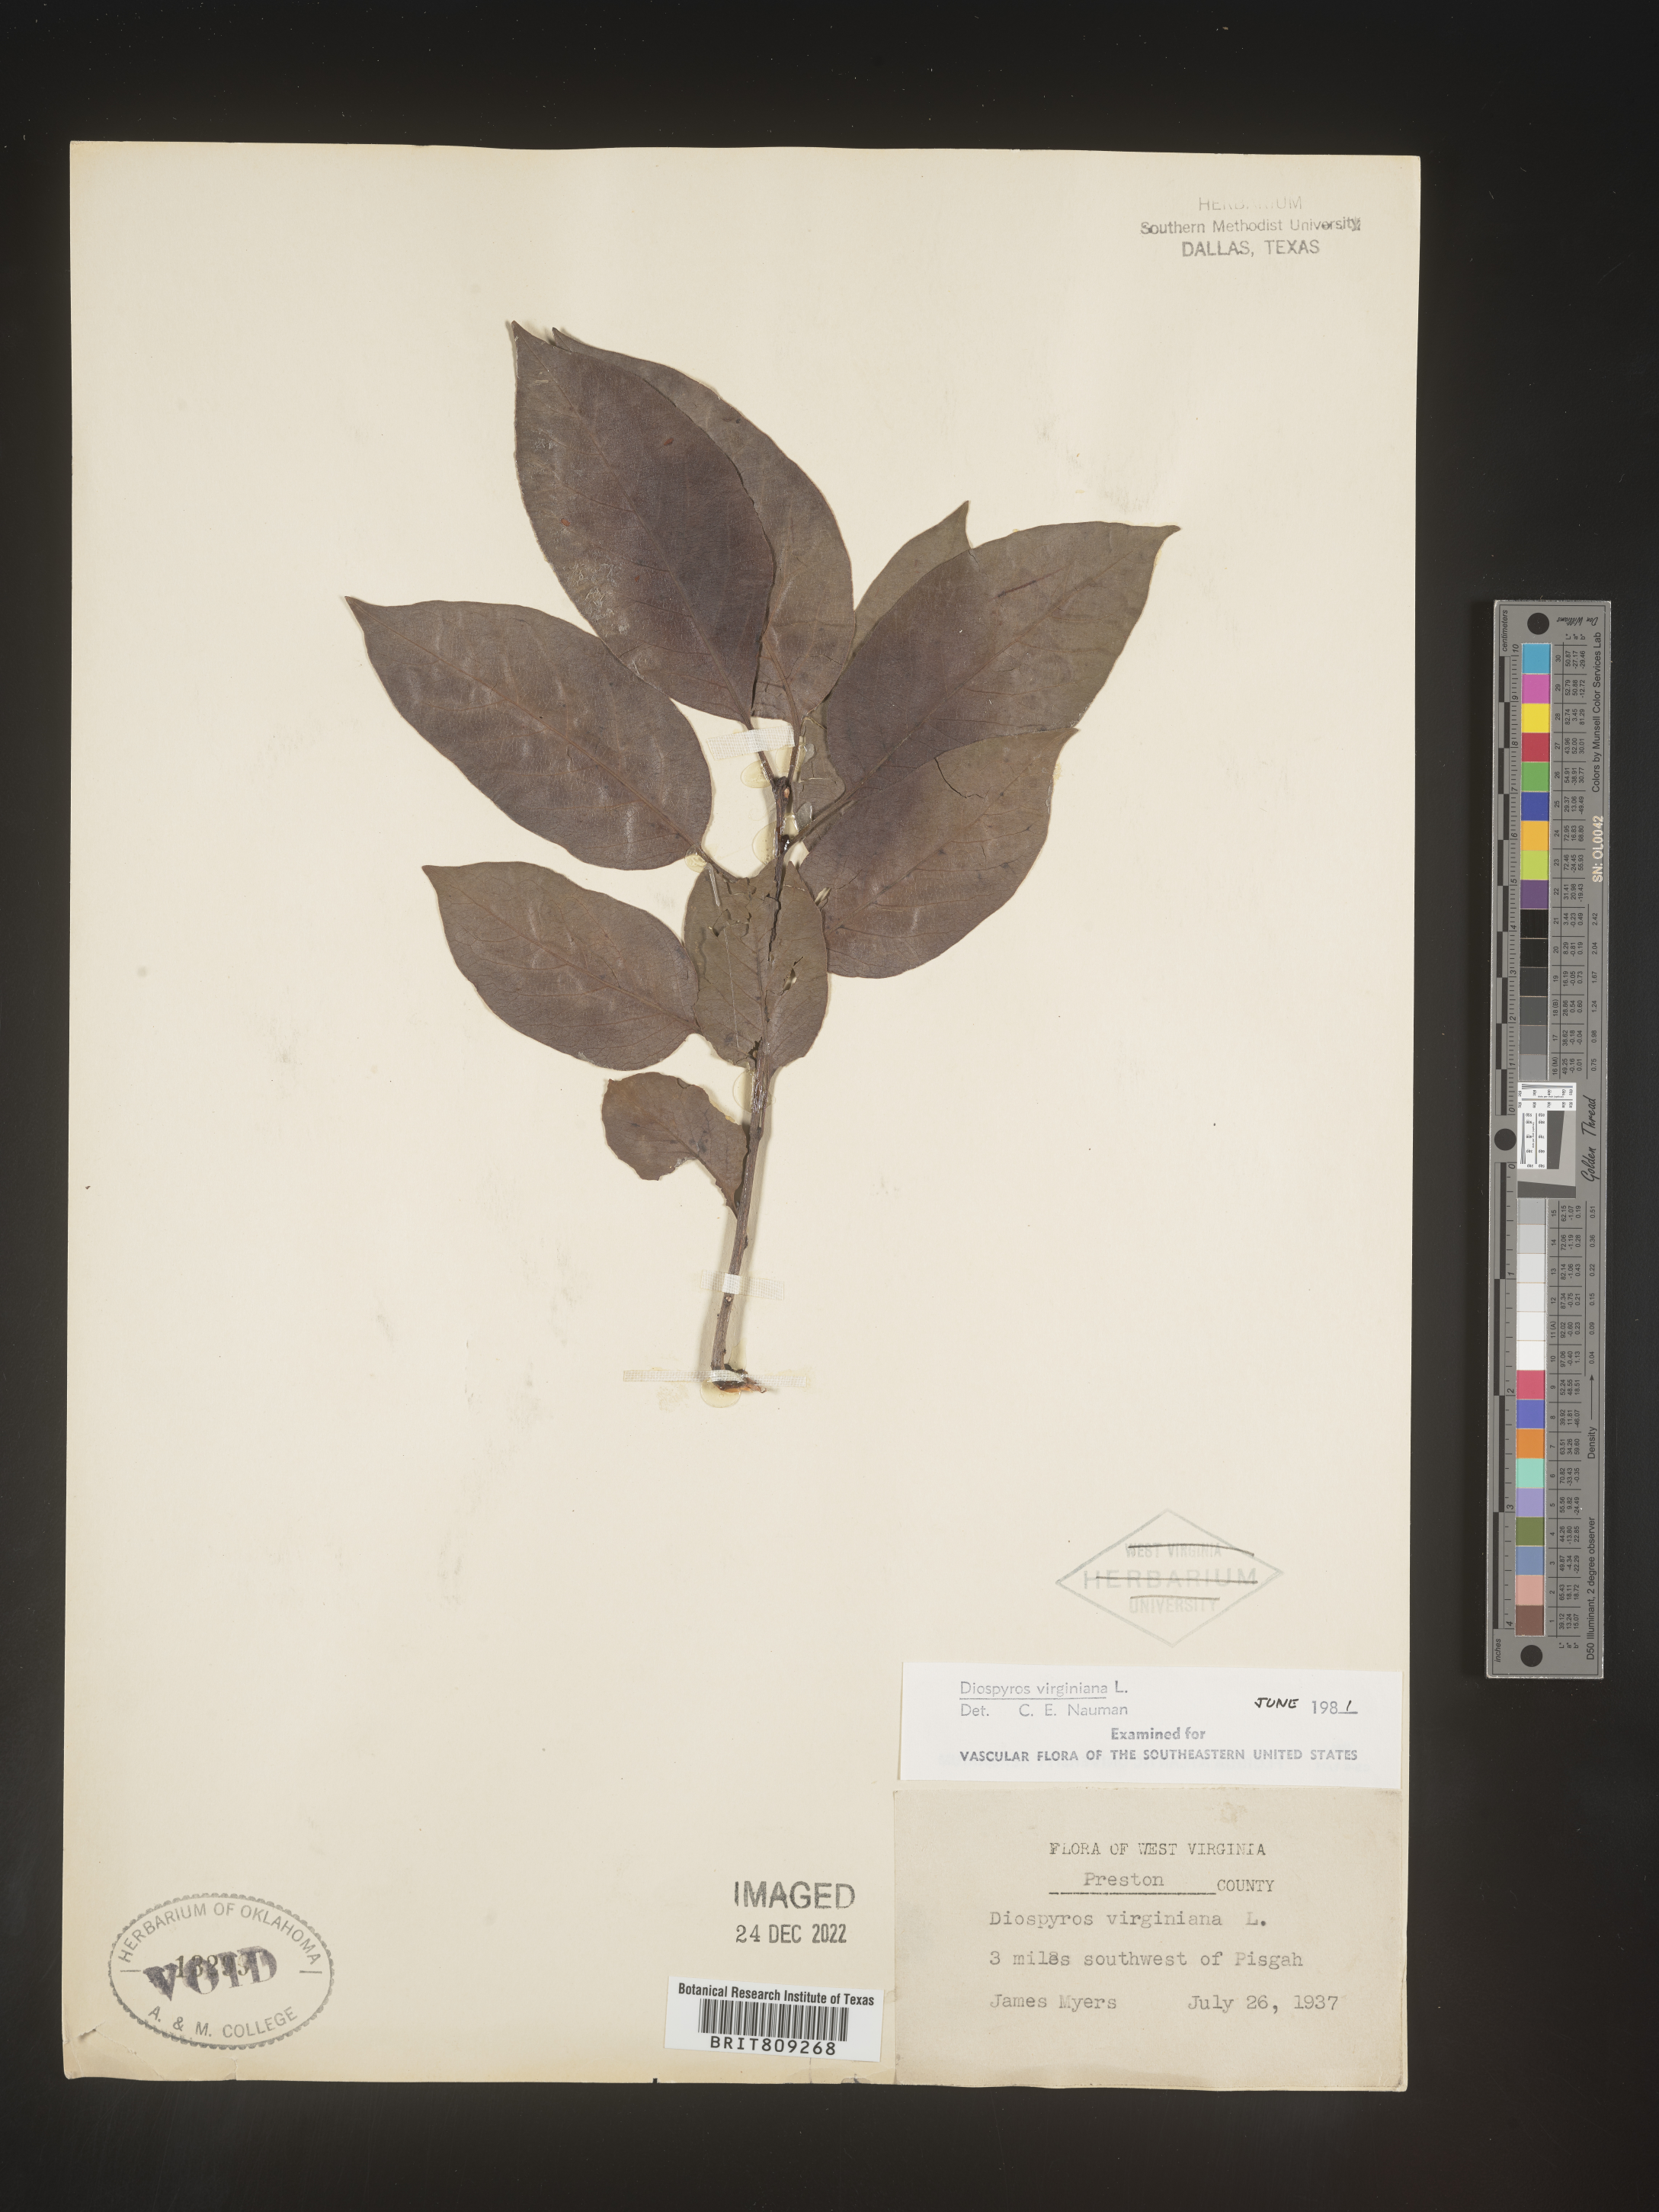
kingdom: Plantae
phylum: Tracheophyta
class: Magnoliopsida
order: Ericales
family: Ebenaceae
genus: Diospyros
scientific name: Diospyros virginiana
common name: Persimmon
